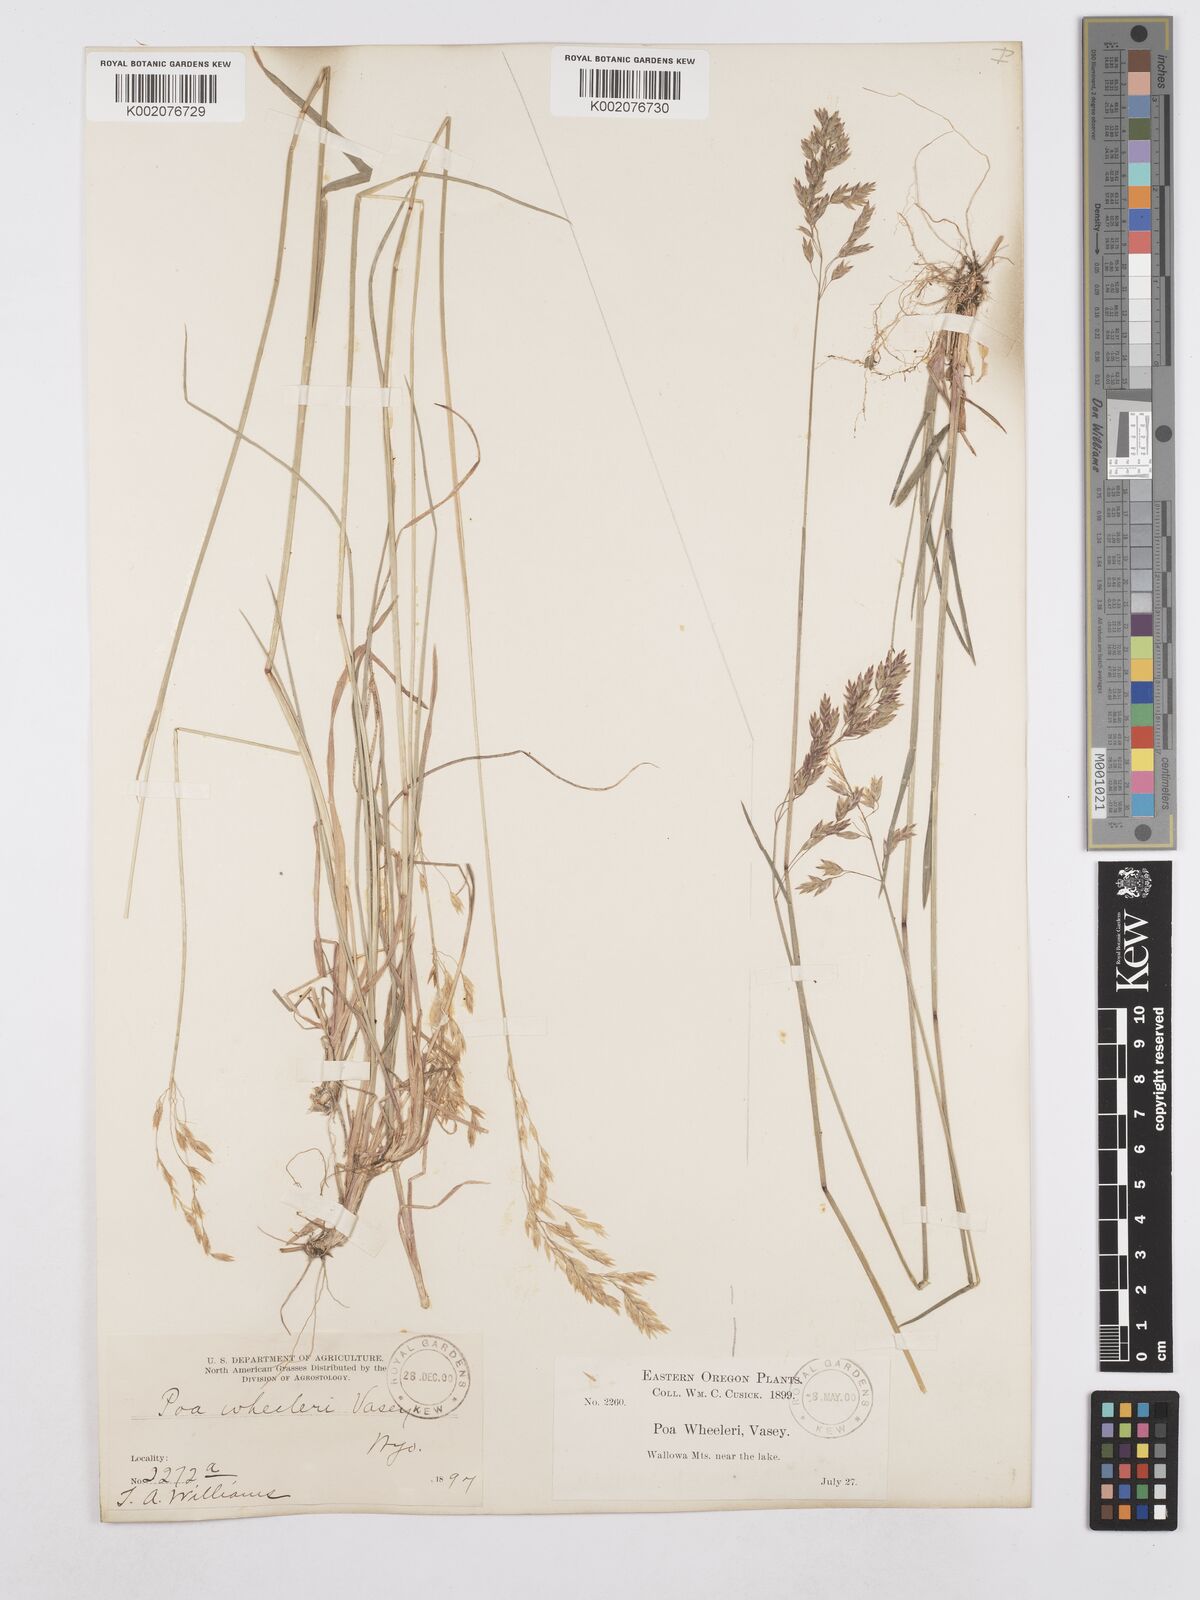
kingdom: Plantae
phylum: Tracheophyta
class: Liliopsida
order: Poales
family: Poaceae
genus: Poa
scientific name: Poa wheeleri
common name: Wheeler's bluegrass
